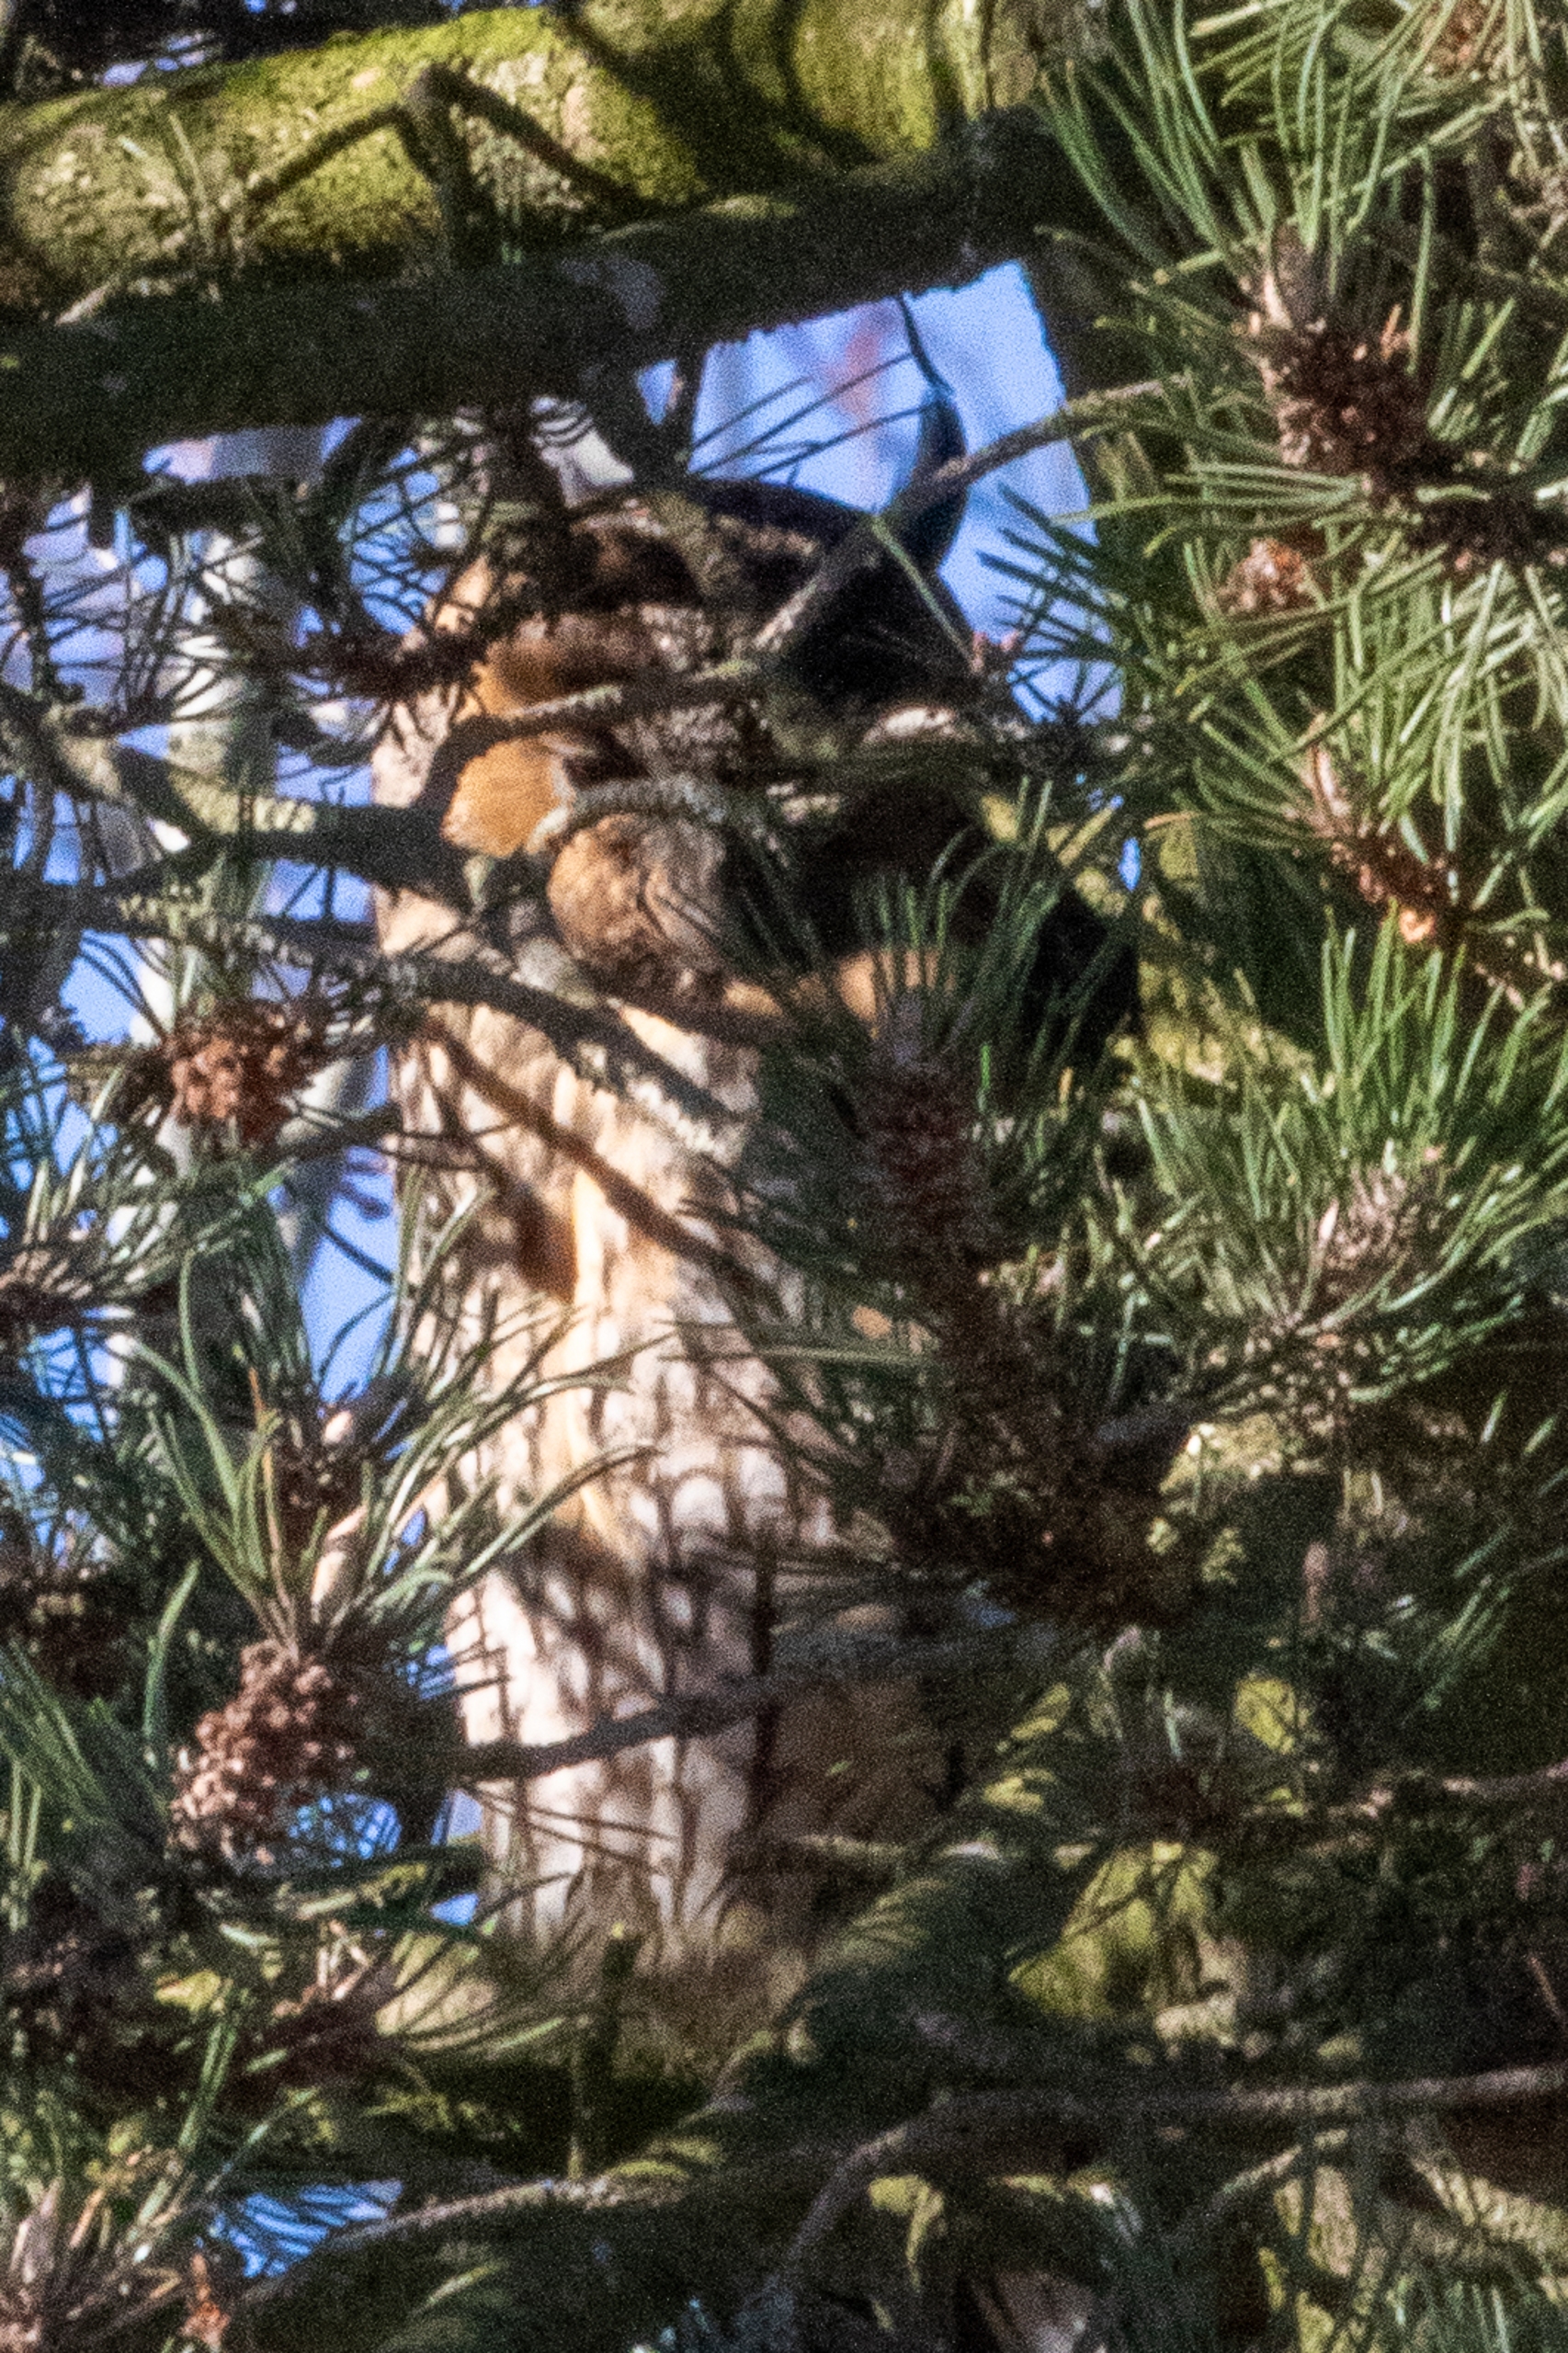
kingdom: Animalia
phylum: Chordata
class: Aves
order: Strigiformes
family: Strigidae
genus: Asio
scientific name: Asio otus
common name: Skovhornugle
